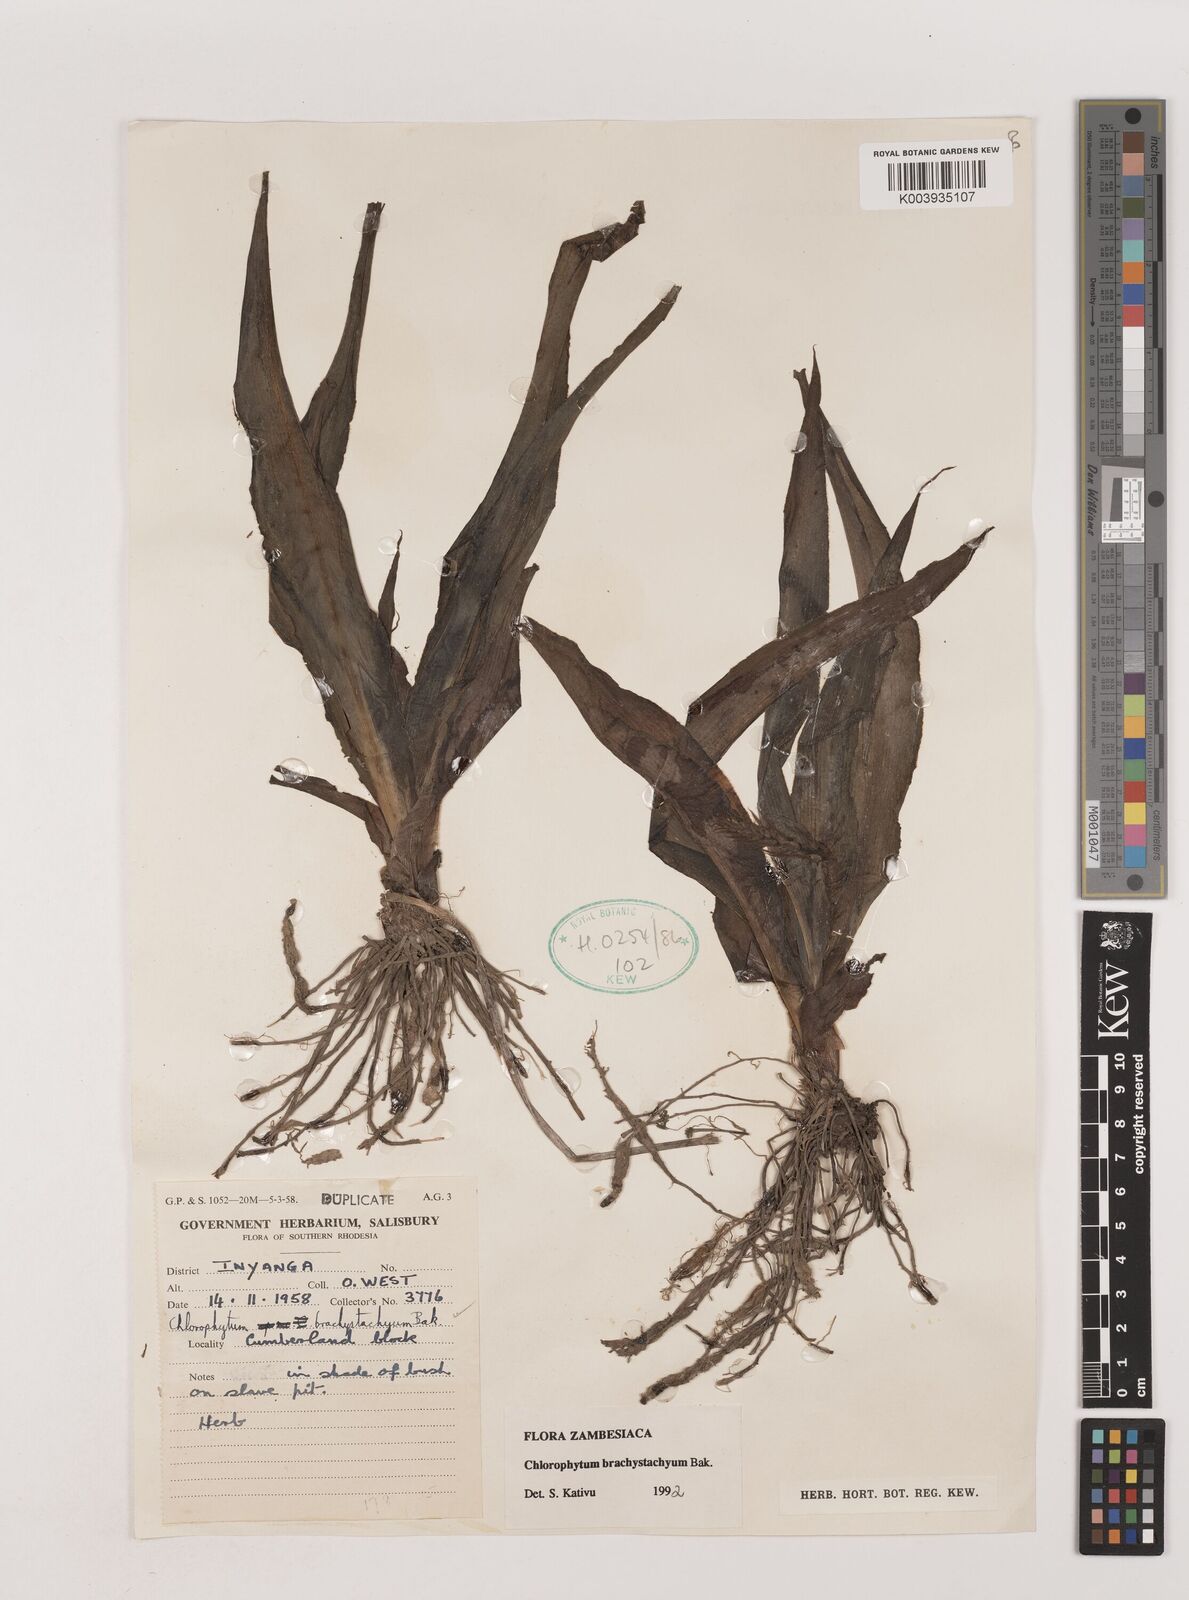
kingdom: Plantae
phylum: Tracheophyta
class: Liliopsida
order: Asparagales
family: Asparagaceae
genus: Chlorophytum
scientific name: Chlorophytum brachystachyum
